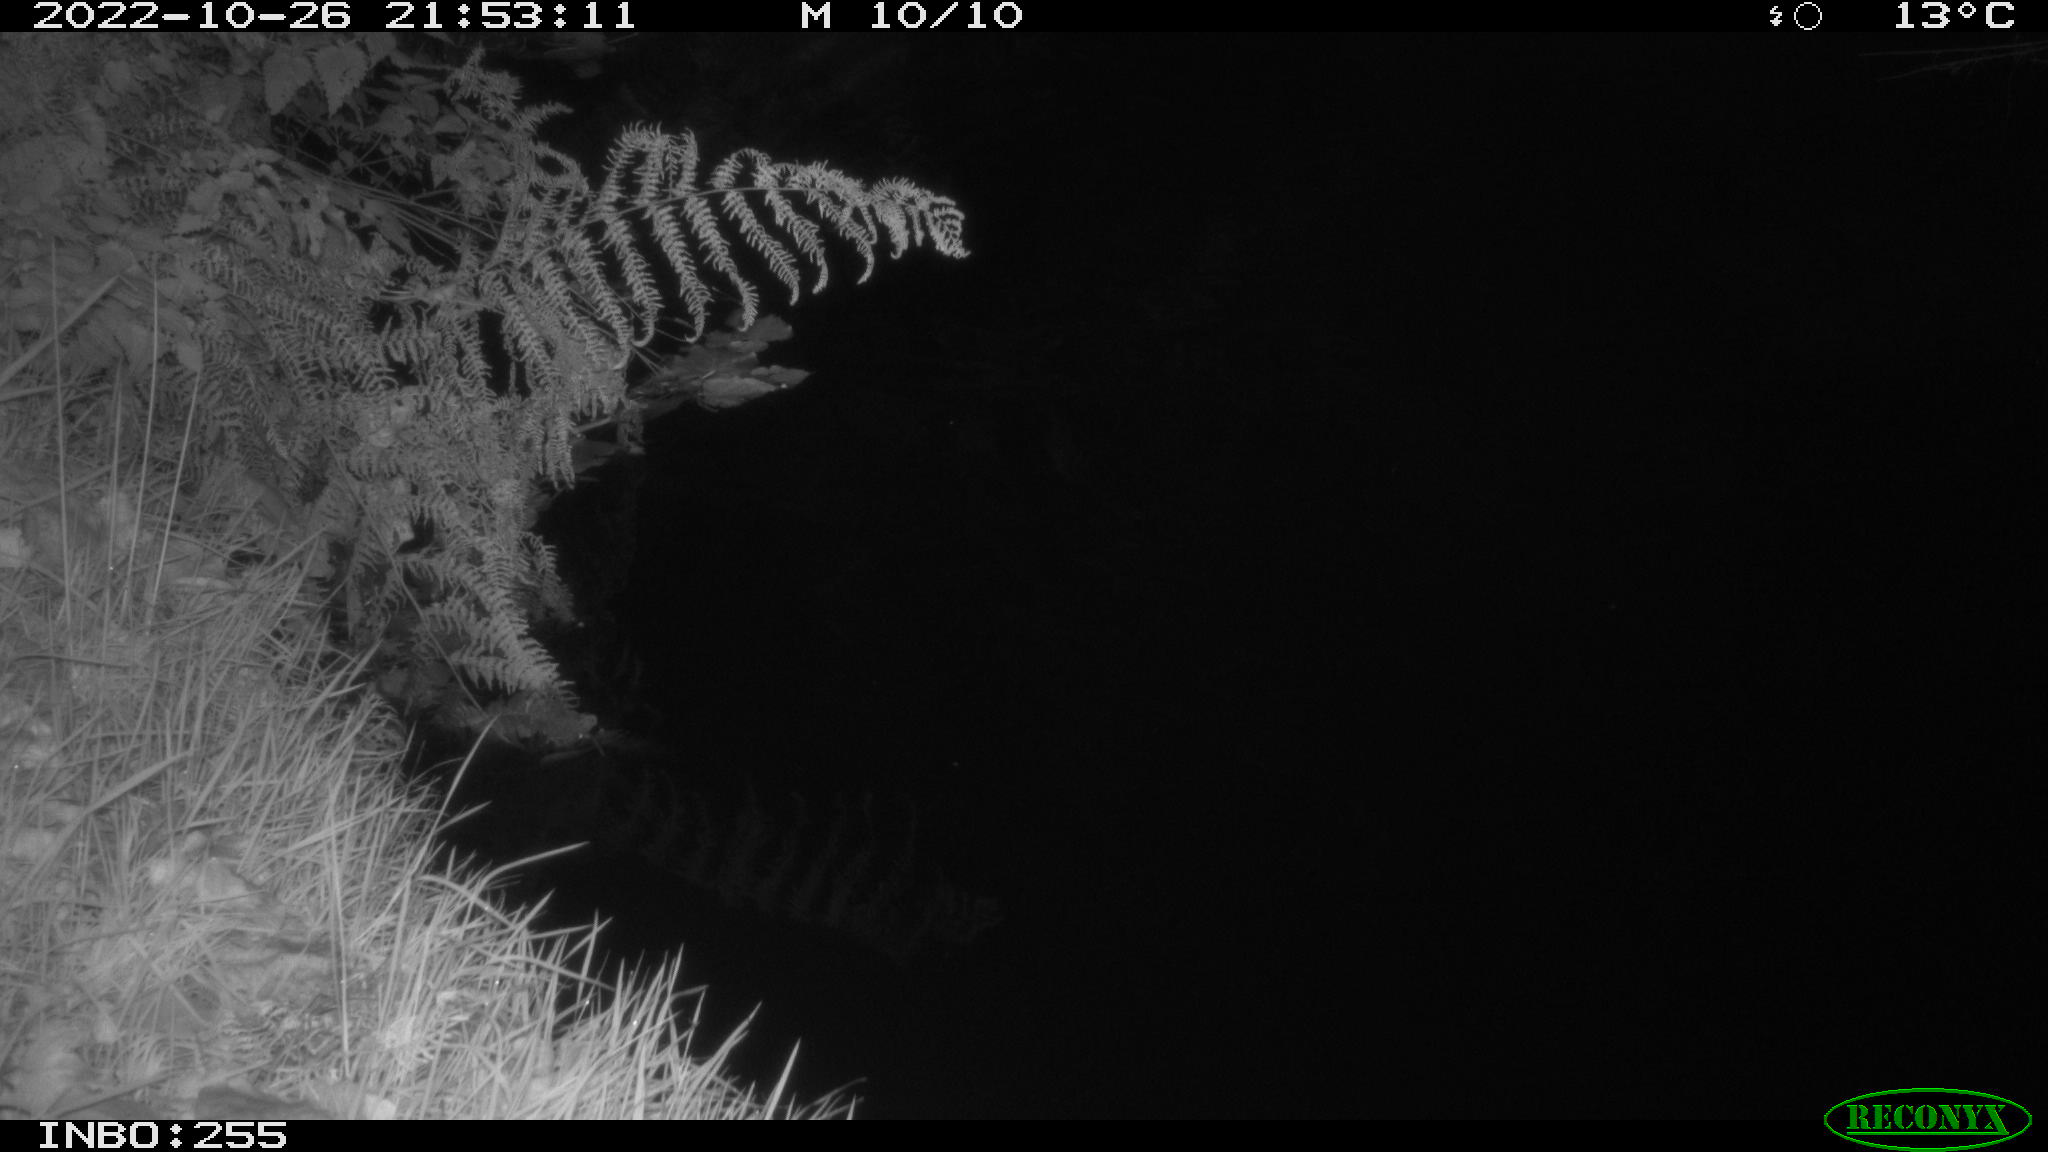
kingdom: Animalia
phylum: Chordata
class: Aves
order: Anseriformes
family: Anatidae
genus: Anas
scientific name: Anas
